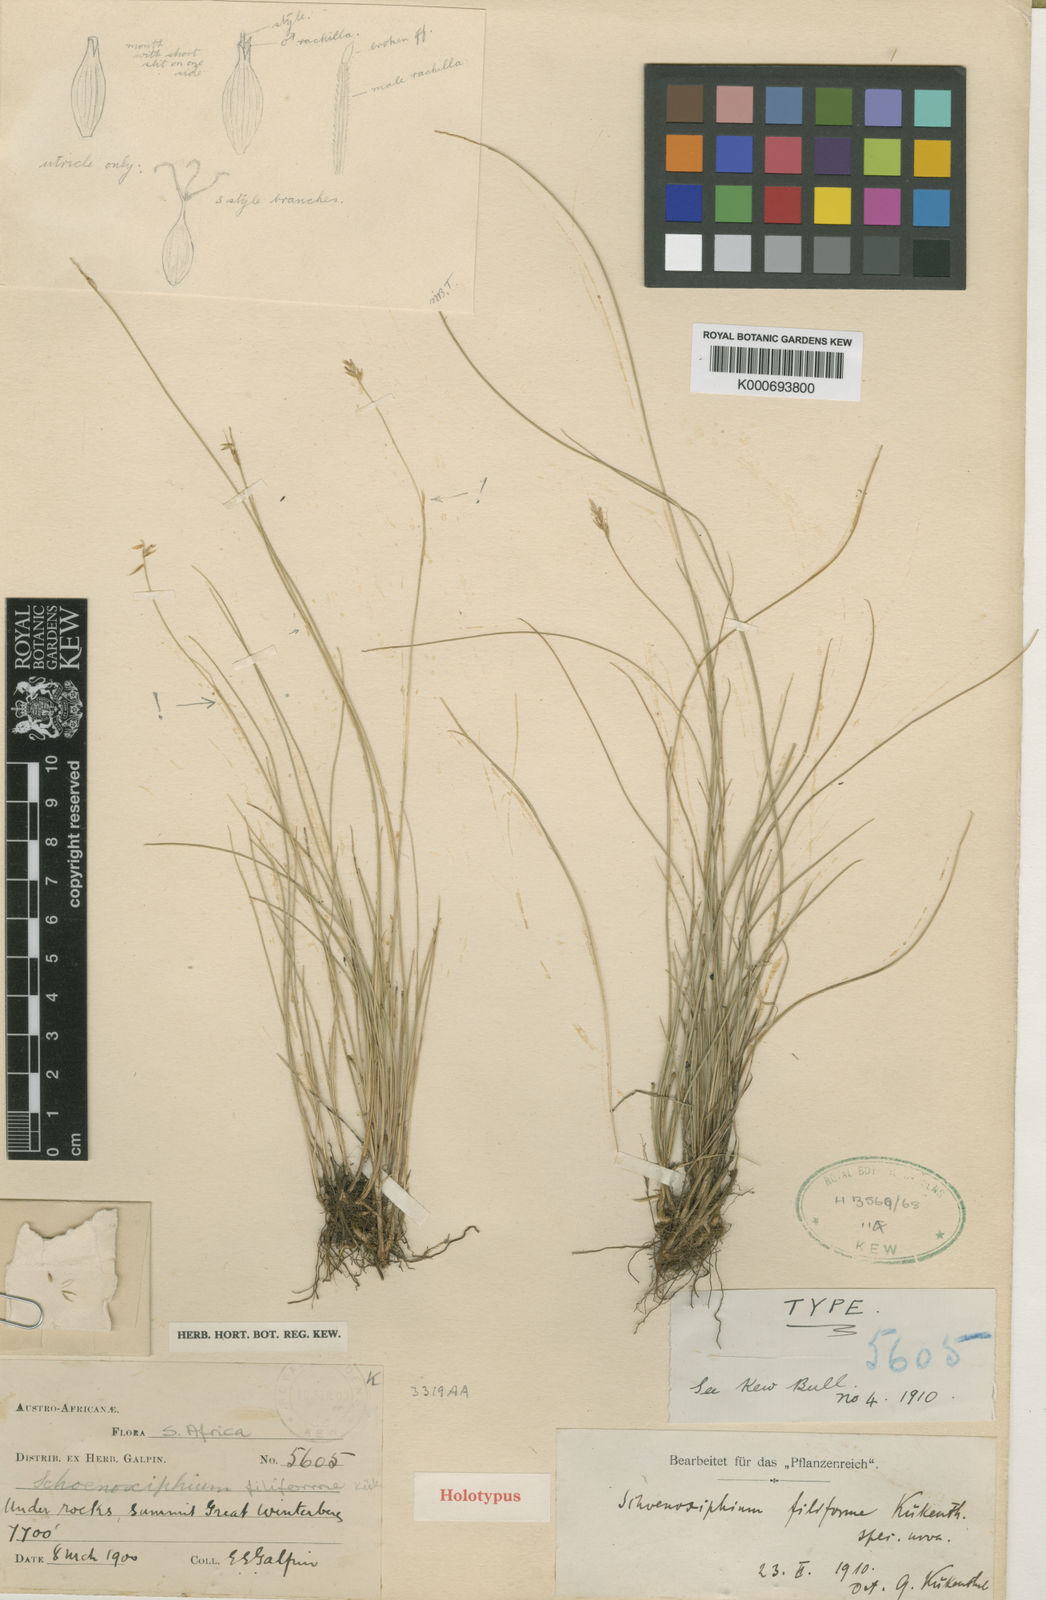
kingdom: Plantae
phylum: Tracheophyta
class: Liliopsida
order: Poales
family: Cyperaceae
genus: Carex
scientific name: Carex
